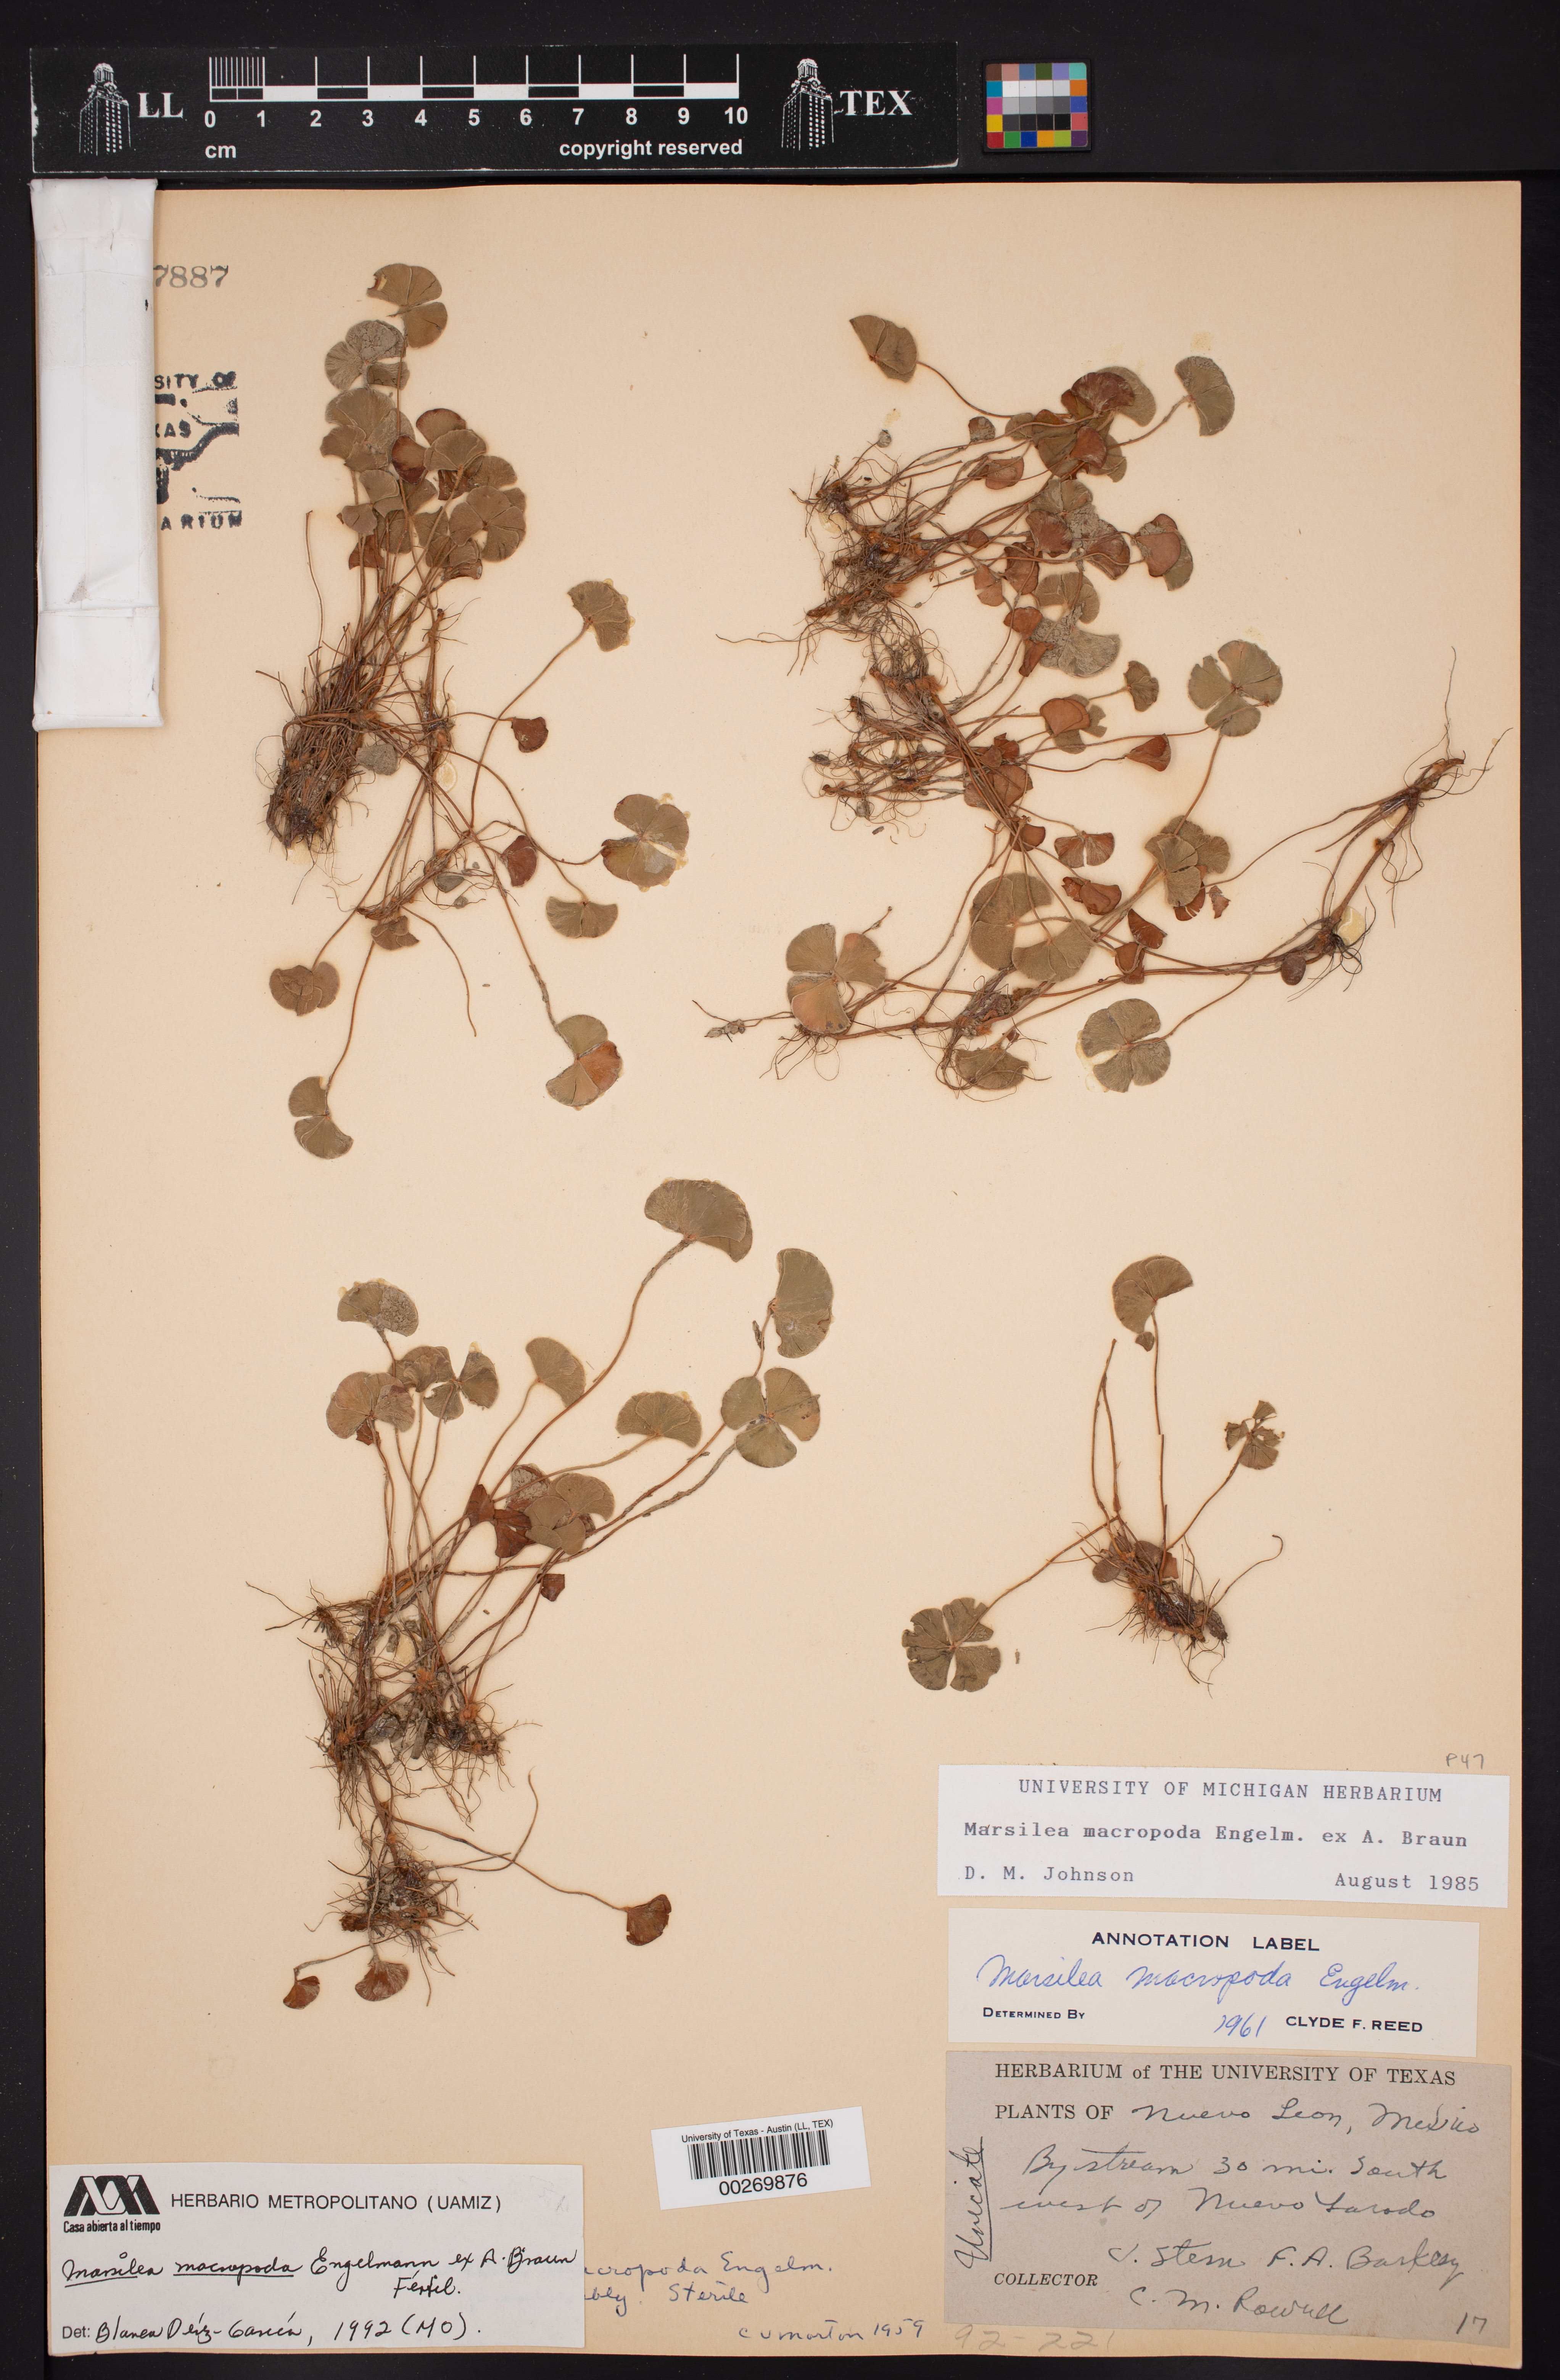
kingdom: Plantae
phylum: Tracheophyta
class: Polypodiopsida
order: Salviniales
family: Marsileaceae
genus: Marsilea
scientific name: Marsilea macropoda
